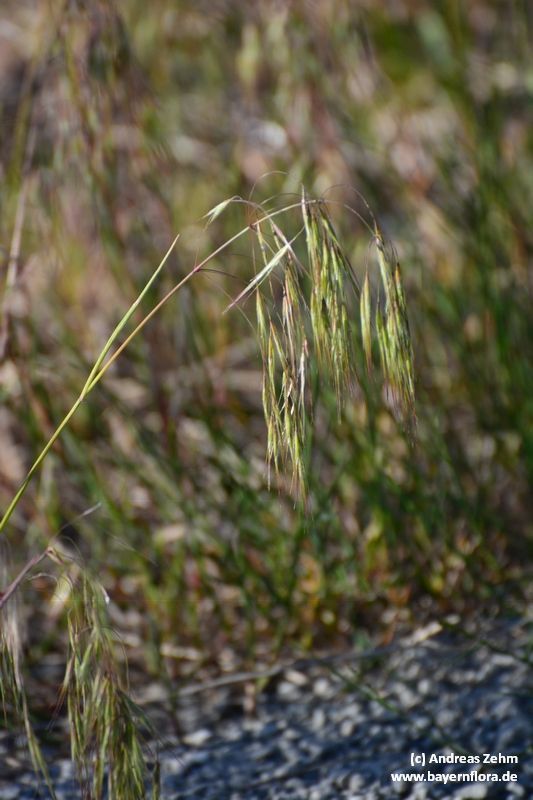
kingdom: Plantae
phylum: Tracheophyta
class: Liliopsida
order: Poales
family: Poaceae
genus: Bromus
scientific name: Bromus tectorum
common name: Cheatgrass
